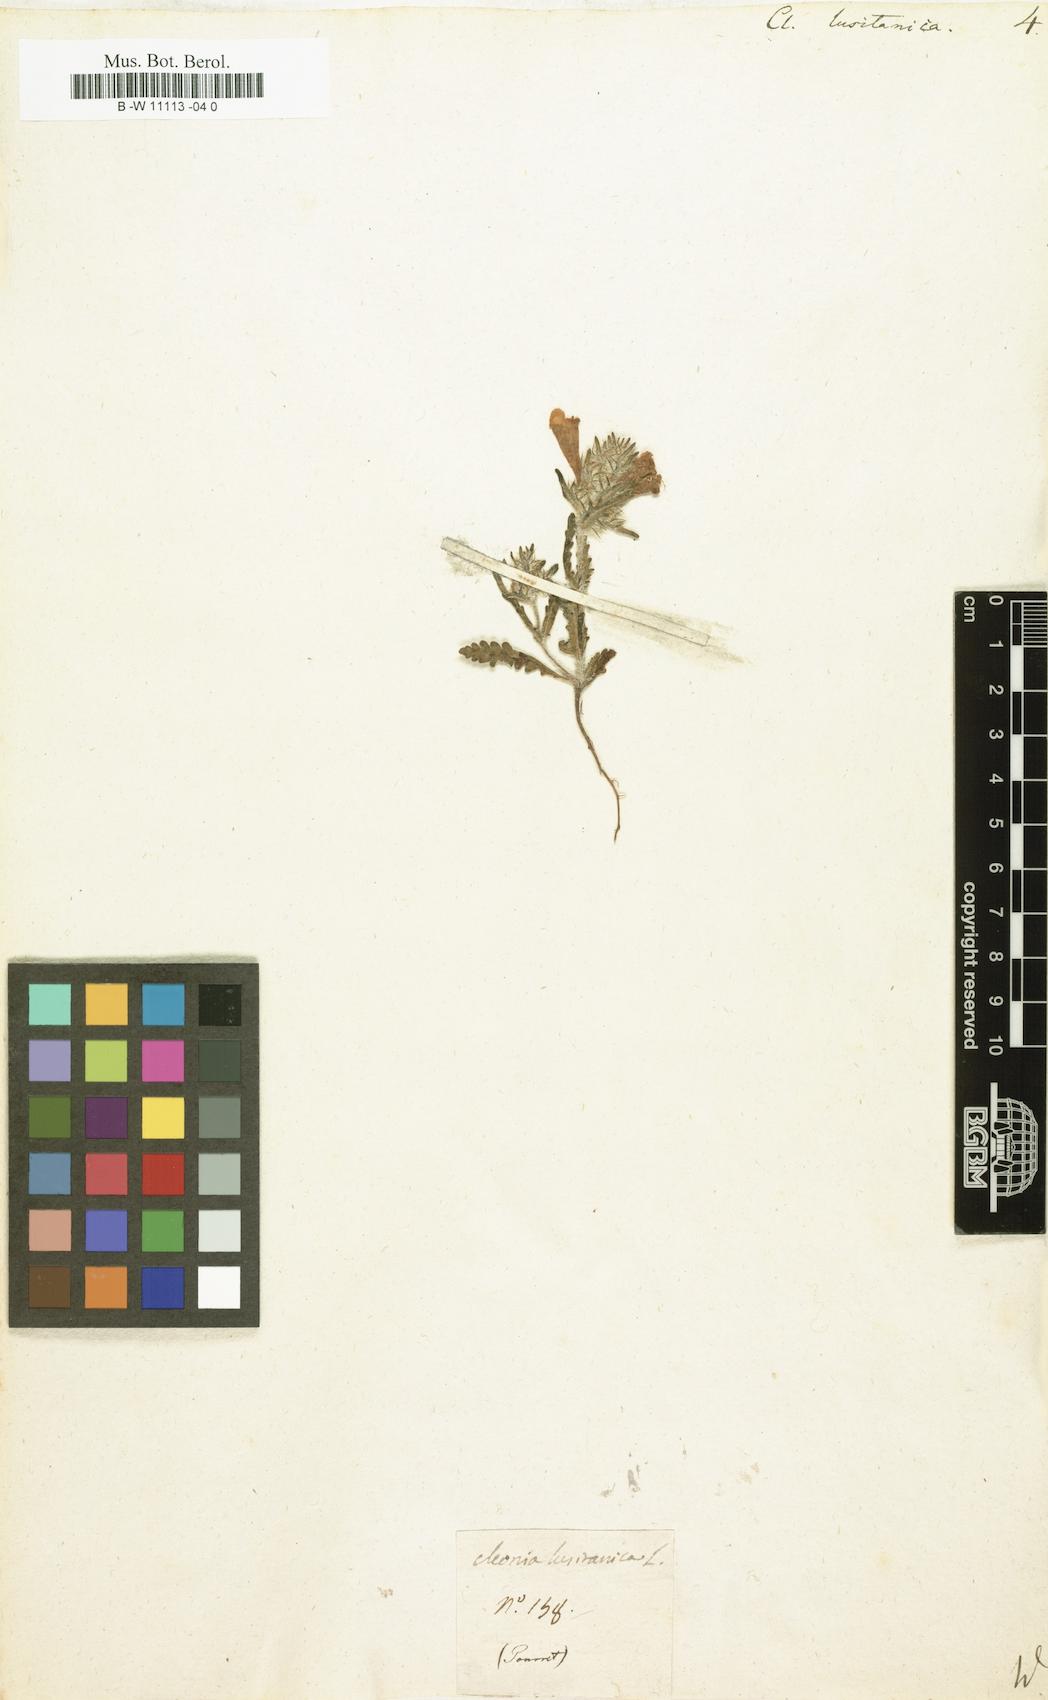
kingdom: Plantae
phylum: Tracheophyta
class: Magnoliopsida
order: Lamiales
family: Lamiaceae
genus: Cleonia
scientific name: Cleonia lusitanica
